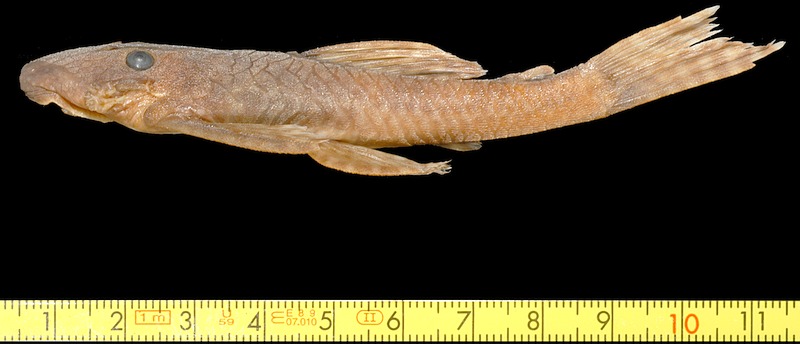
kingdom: Animalia
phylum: Chordata
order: Siluriformes
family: Loricariidae
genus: Ancistrus
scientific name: Ancistrus pirareta
